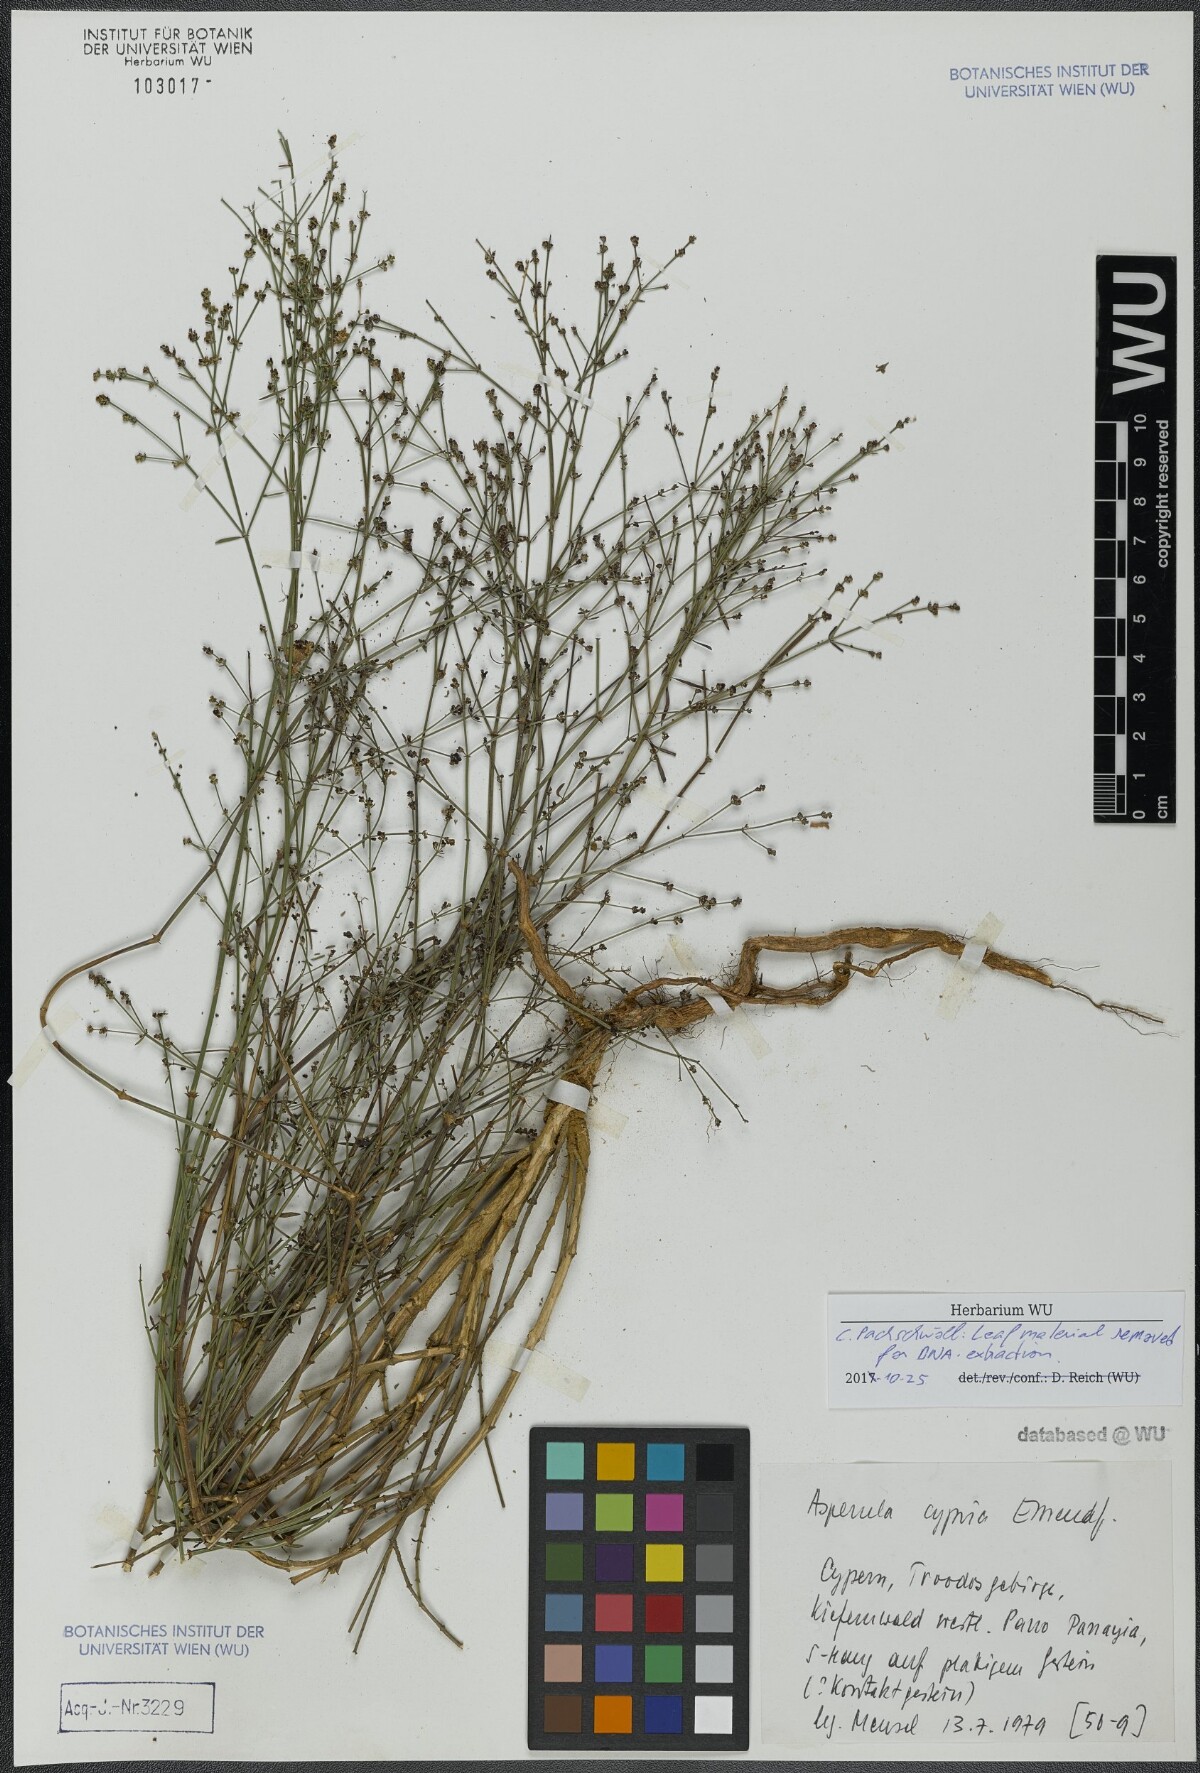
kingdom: Plantae
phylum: Tracheophyta
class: Magnoliopsida
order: Gentianales
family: Rubiaceae
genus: Thliphthisa
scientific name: Thliphthisa suberosa
